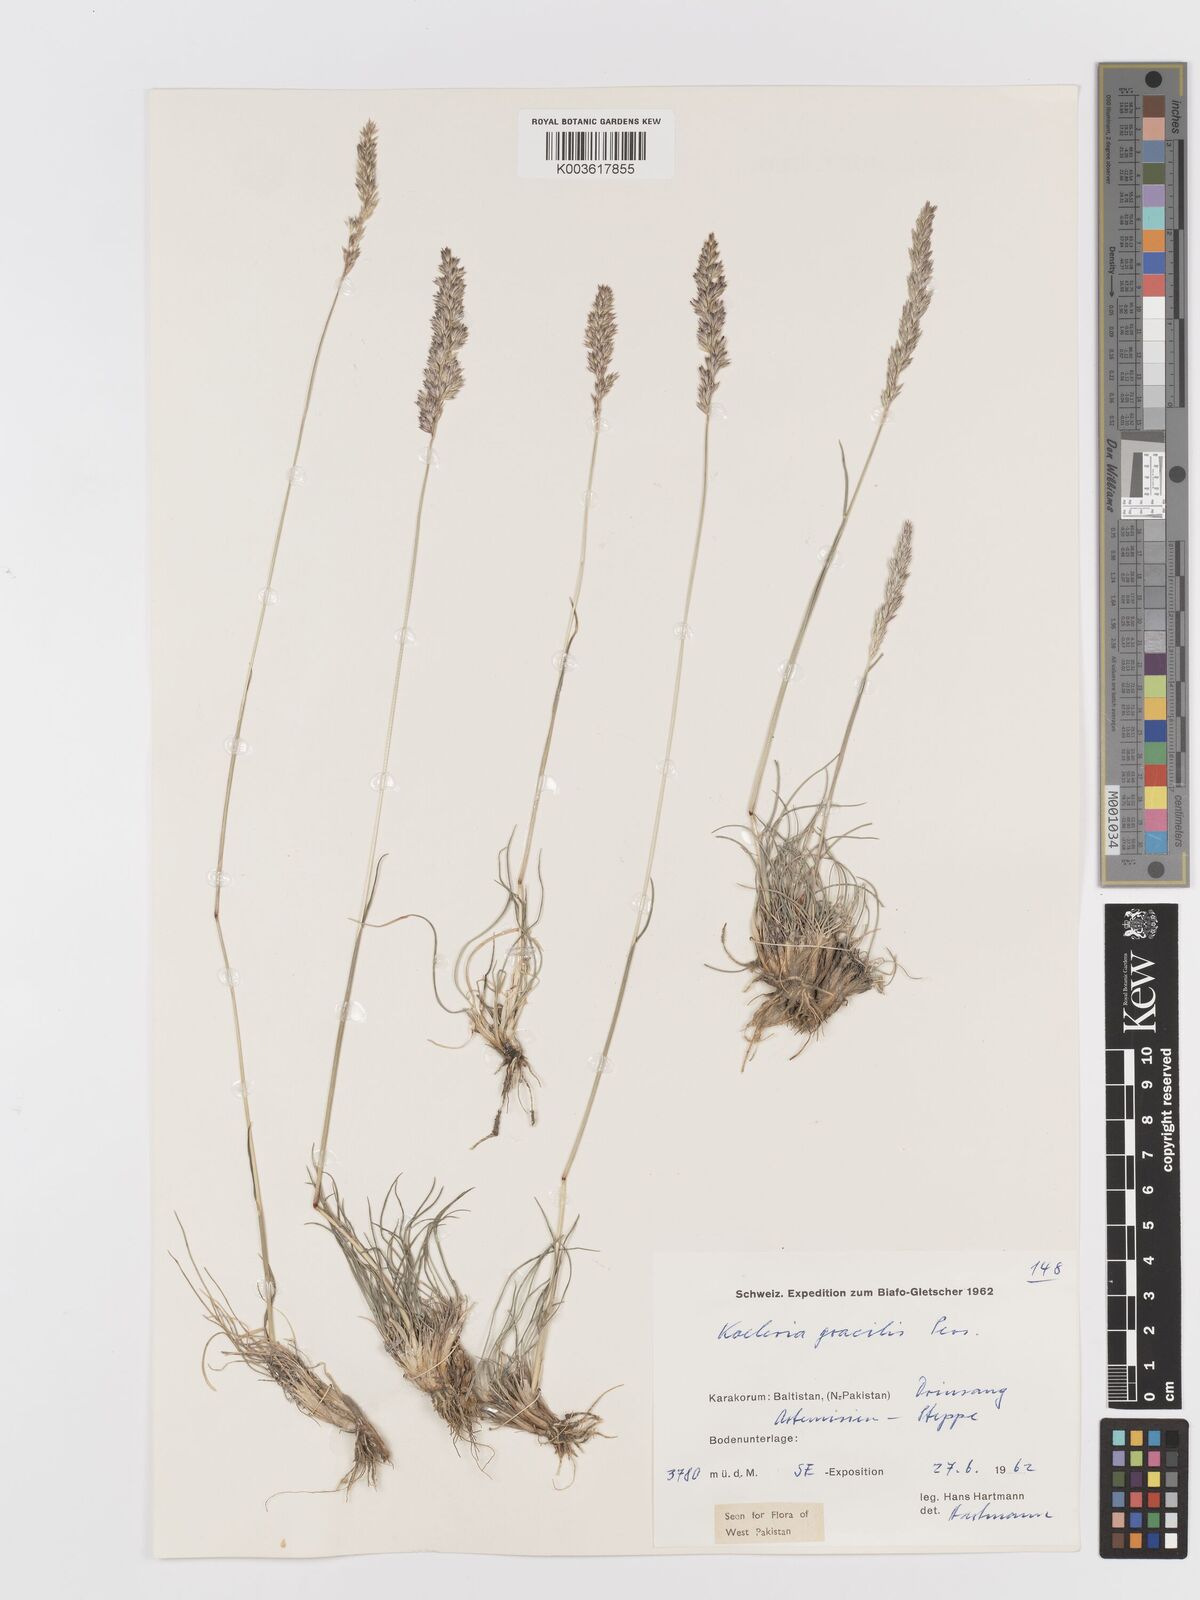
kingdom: Plantae
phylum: Tracheophyta
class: Liliopsida
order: Poales
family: Poaceae
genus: Koeleria
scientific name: Koeleria macrantha
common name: Crested hair-grass
